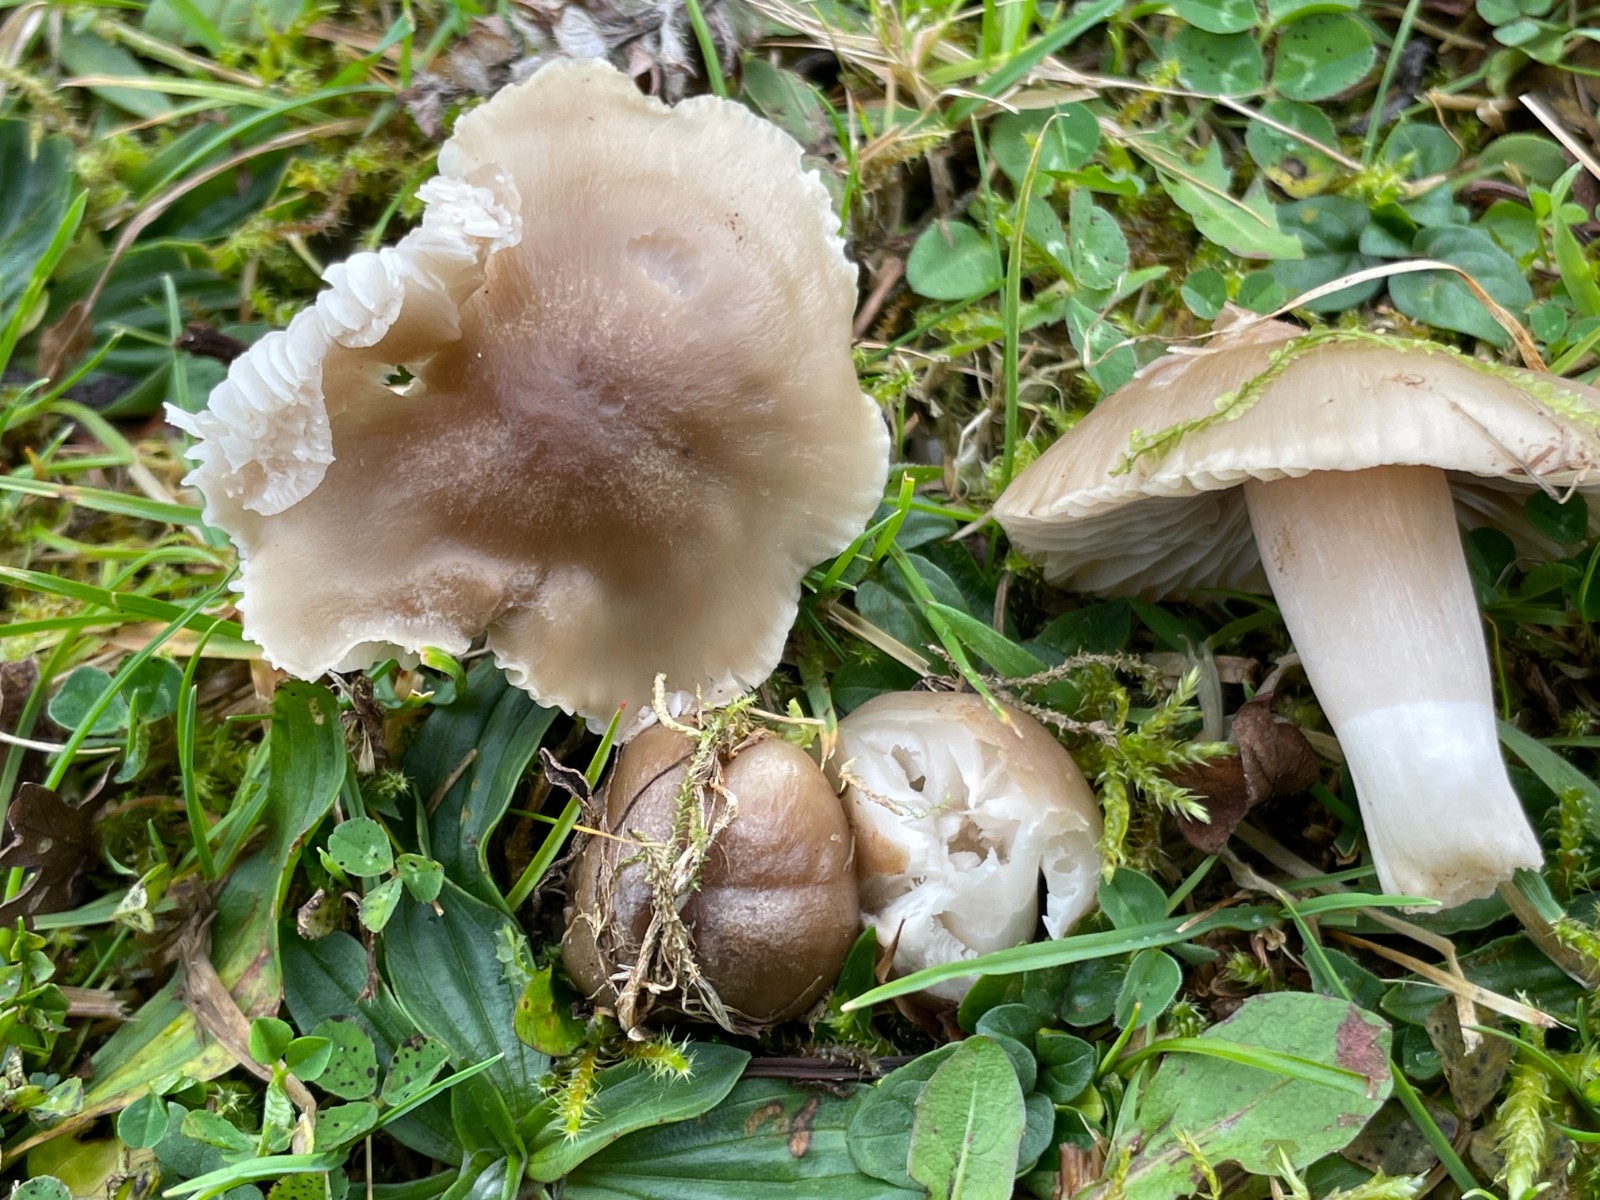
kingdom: Fungi
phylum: Basidiomycota
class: Agaricomycetes
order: Agaricales
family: Hygrophoraceae
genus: Cuphophyllus
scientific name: Cuphophyllus fornicatus
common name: gråbrun vokshat
